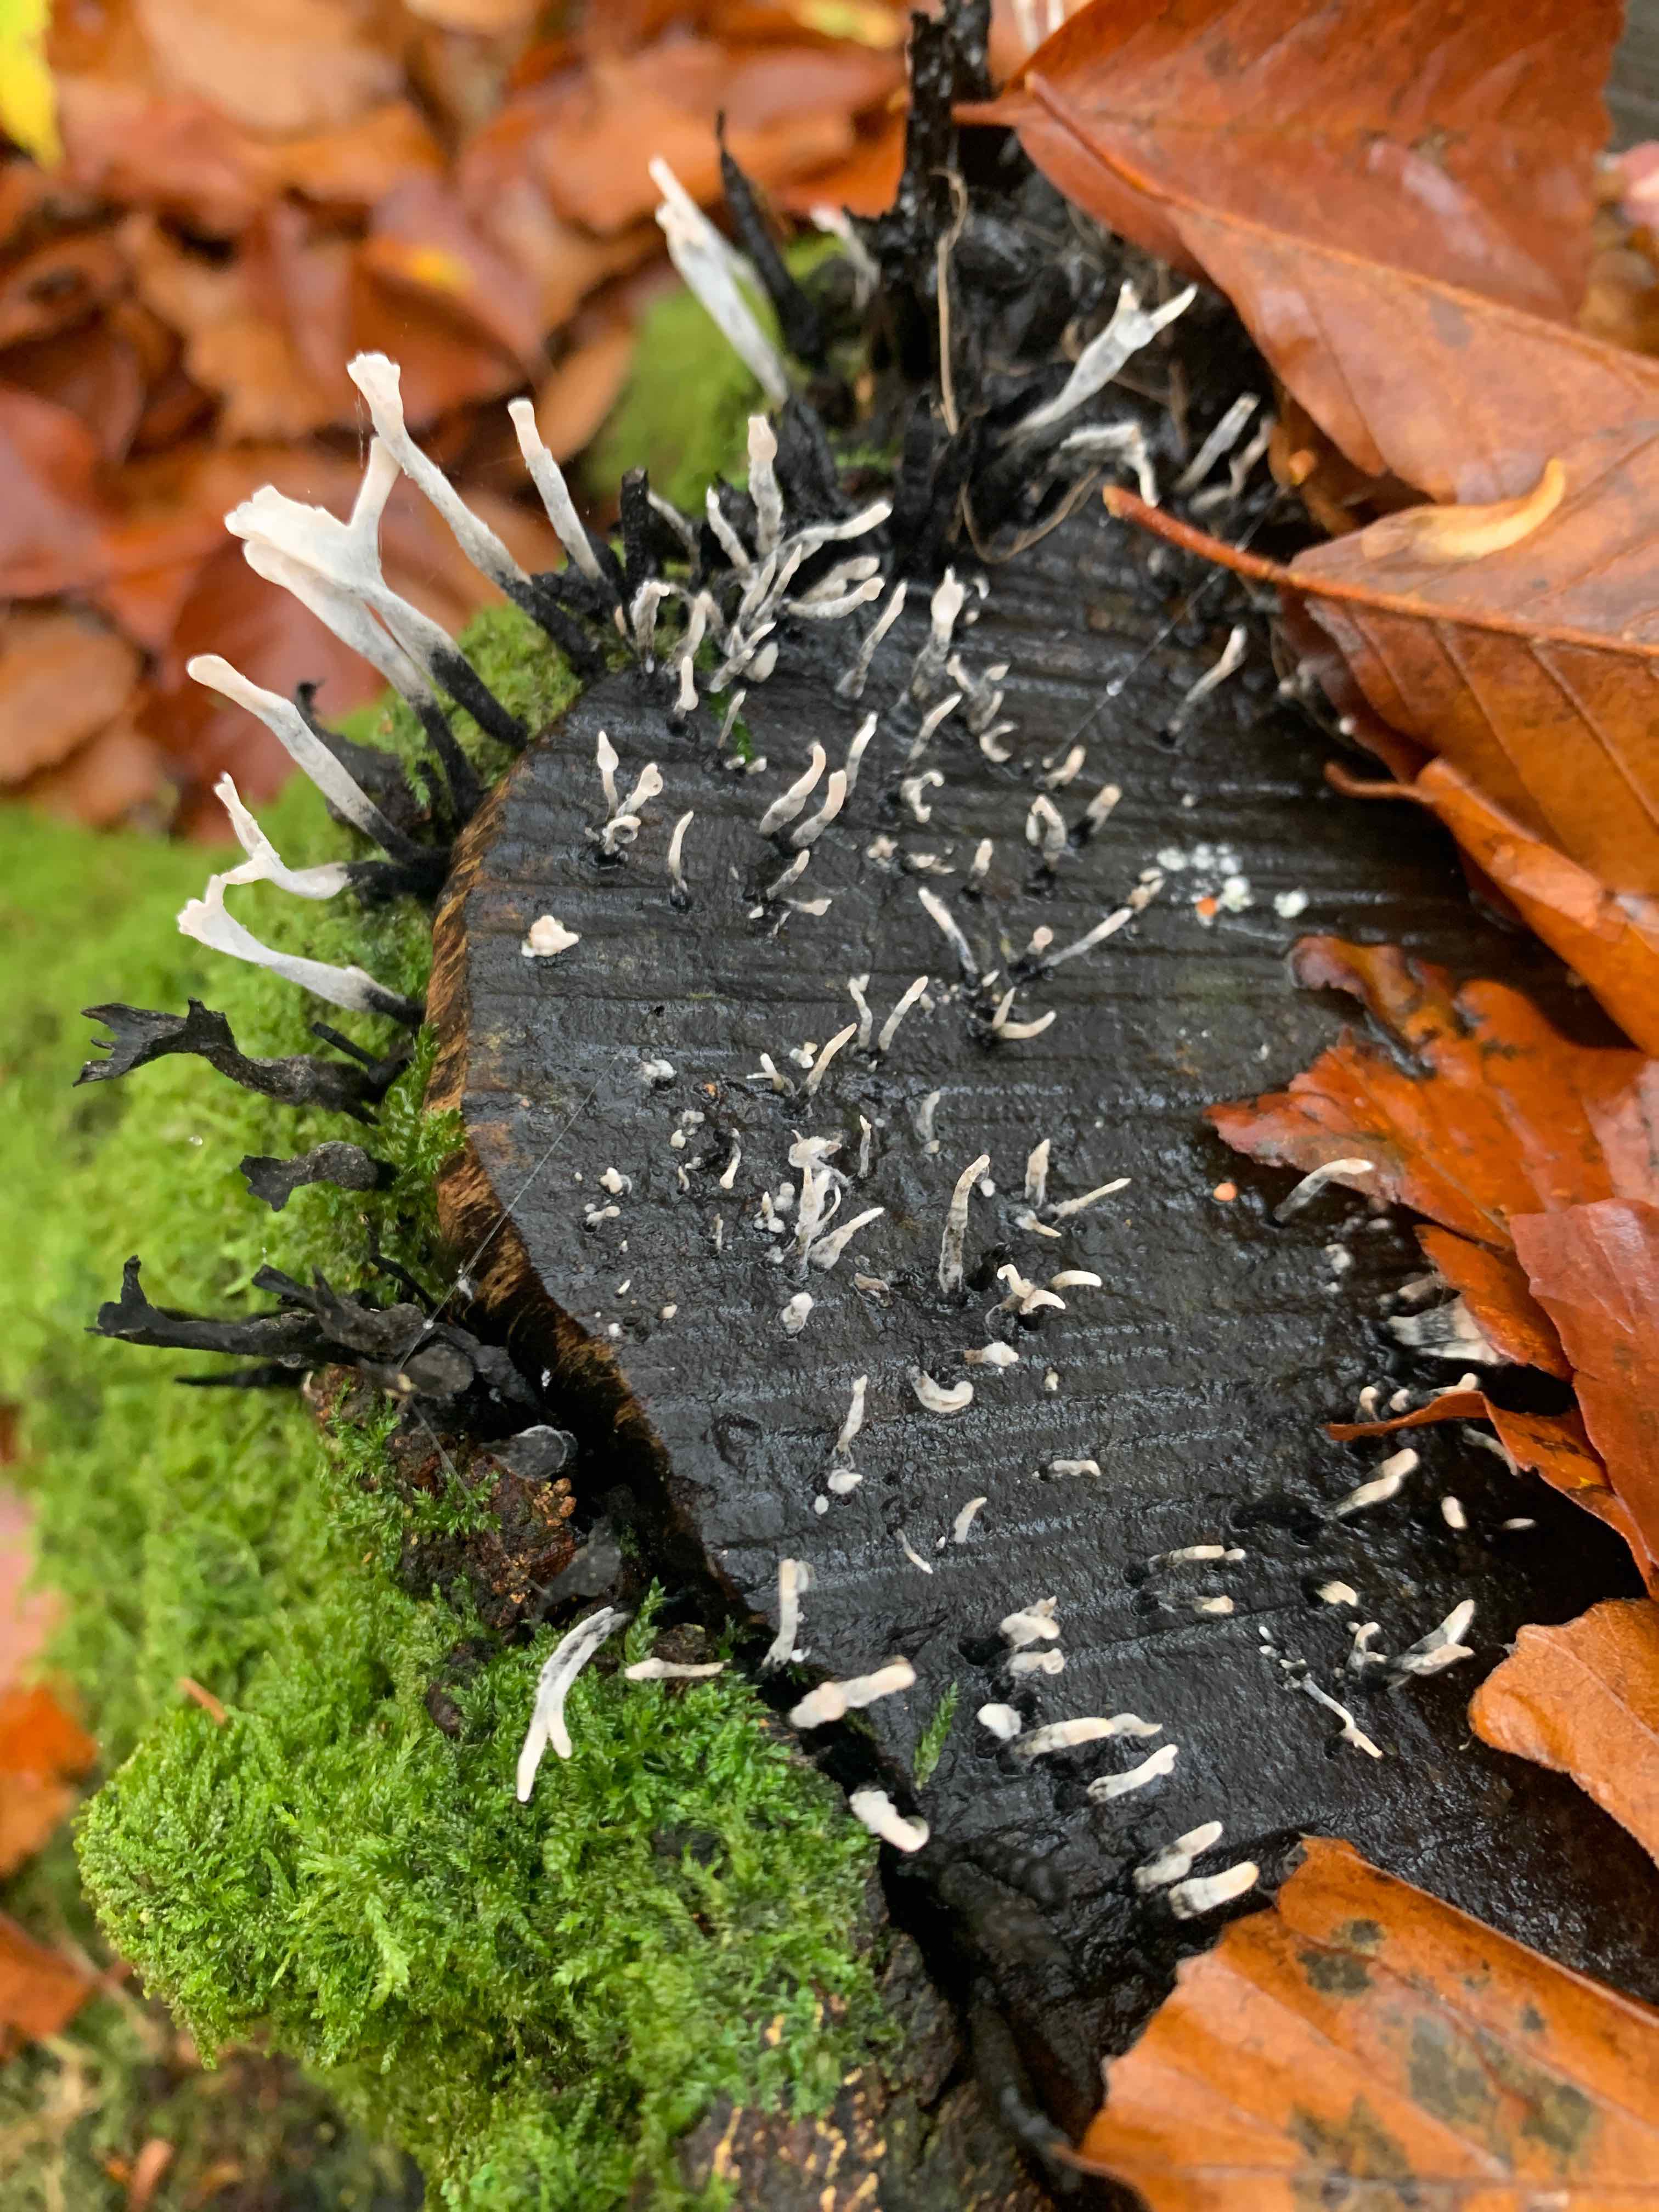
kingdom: Fungi
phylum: Ascomycota
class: Sordariomycetes
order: Xylariales
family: Xylariaceae
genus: Xylaria
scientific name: Xylaria hypoxylon
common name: grenet stødsvamp
